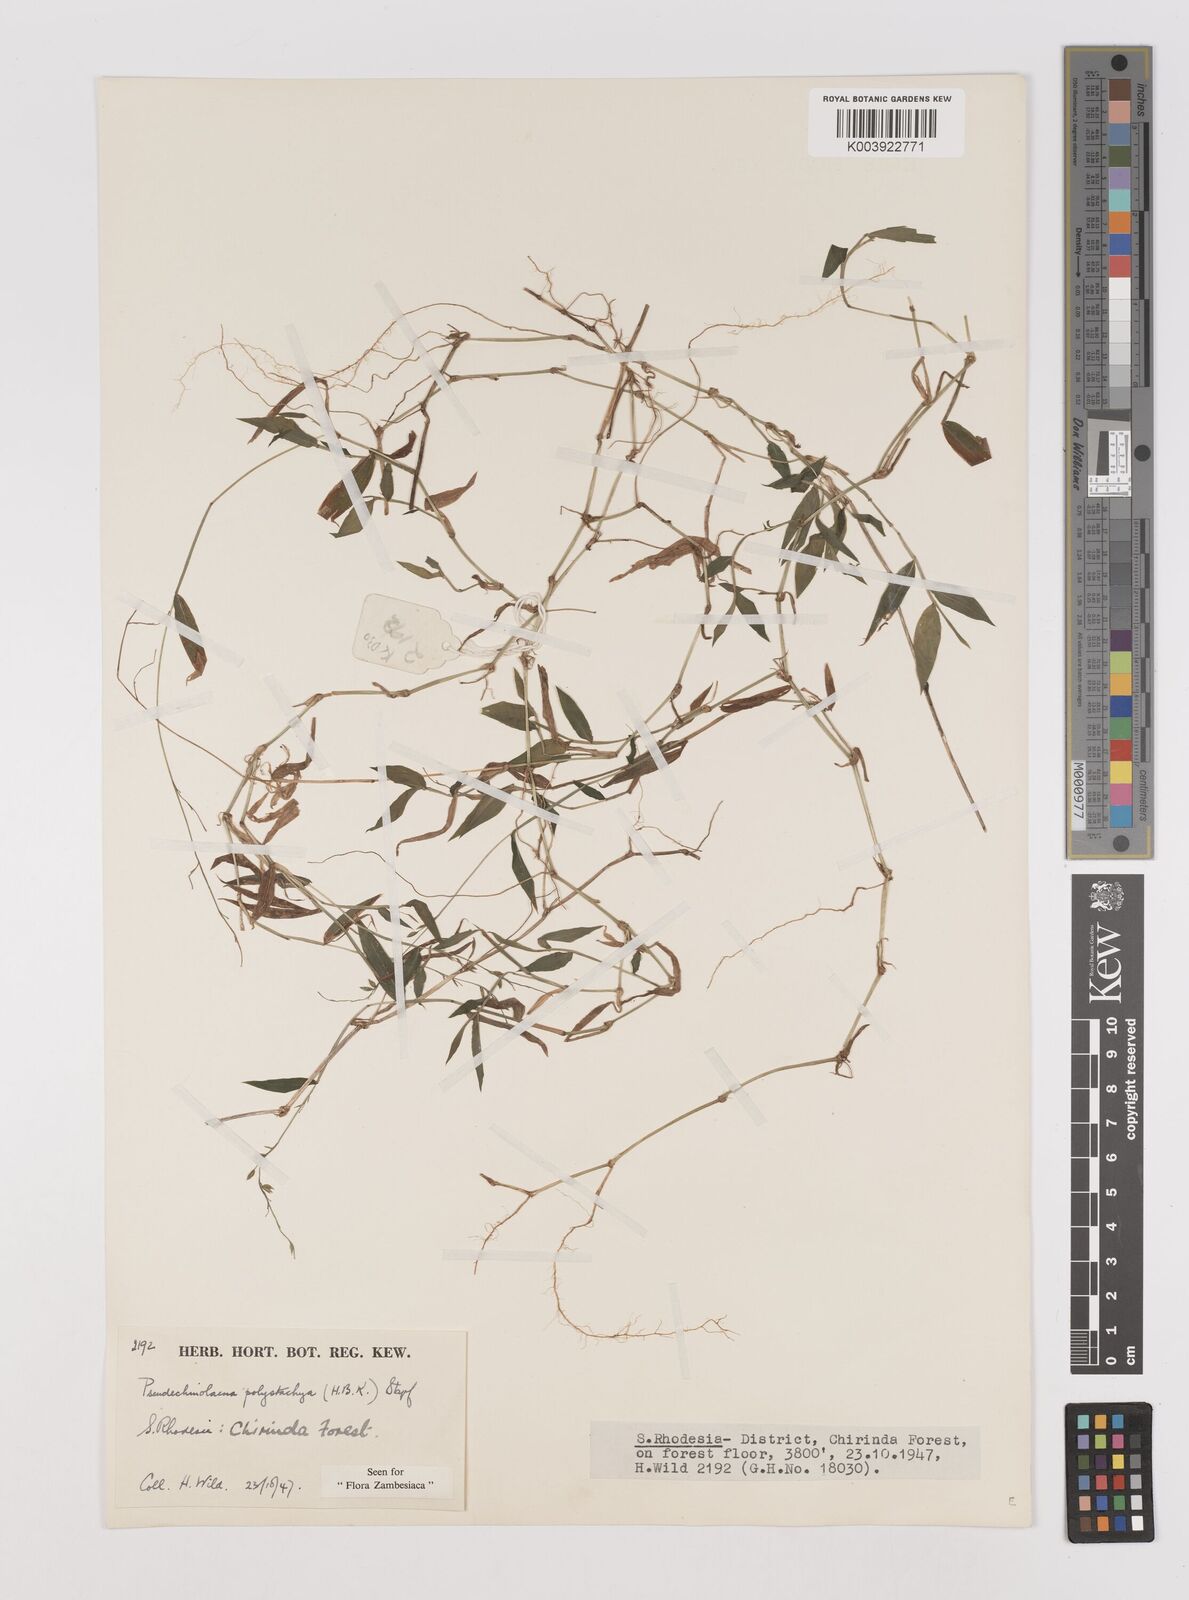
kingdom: Plantae
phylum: Tracheophyta
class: Liliopsida
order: Poales
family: Poaceae
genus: Pseudechinolaena
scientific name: Pseudechinolaena polystachya
